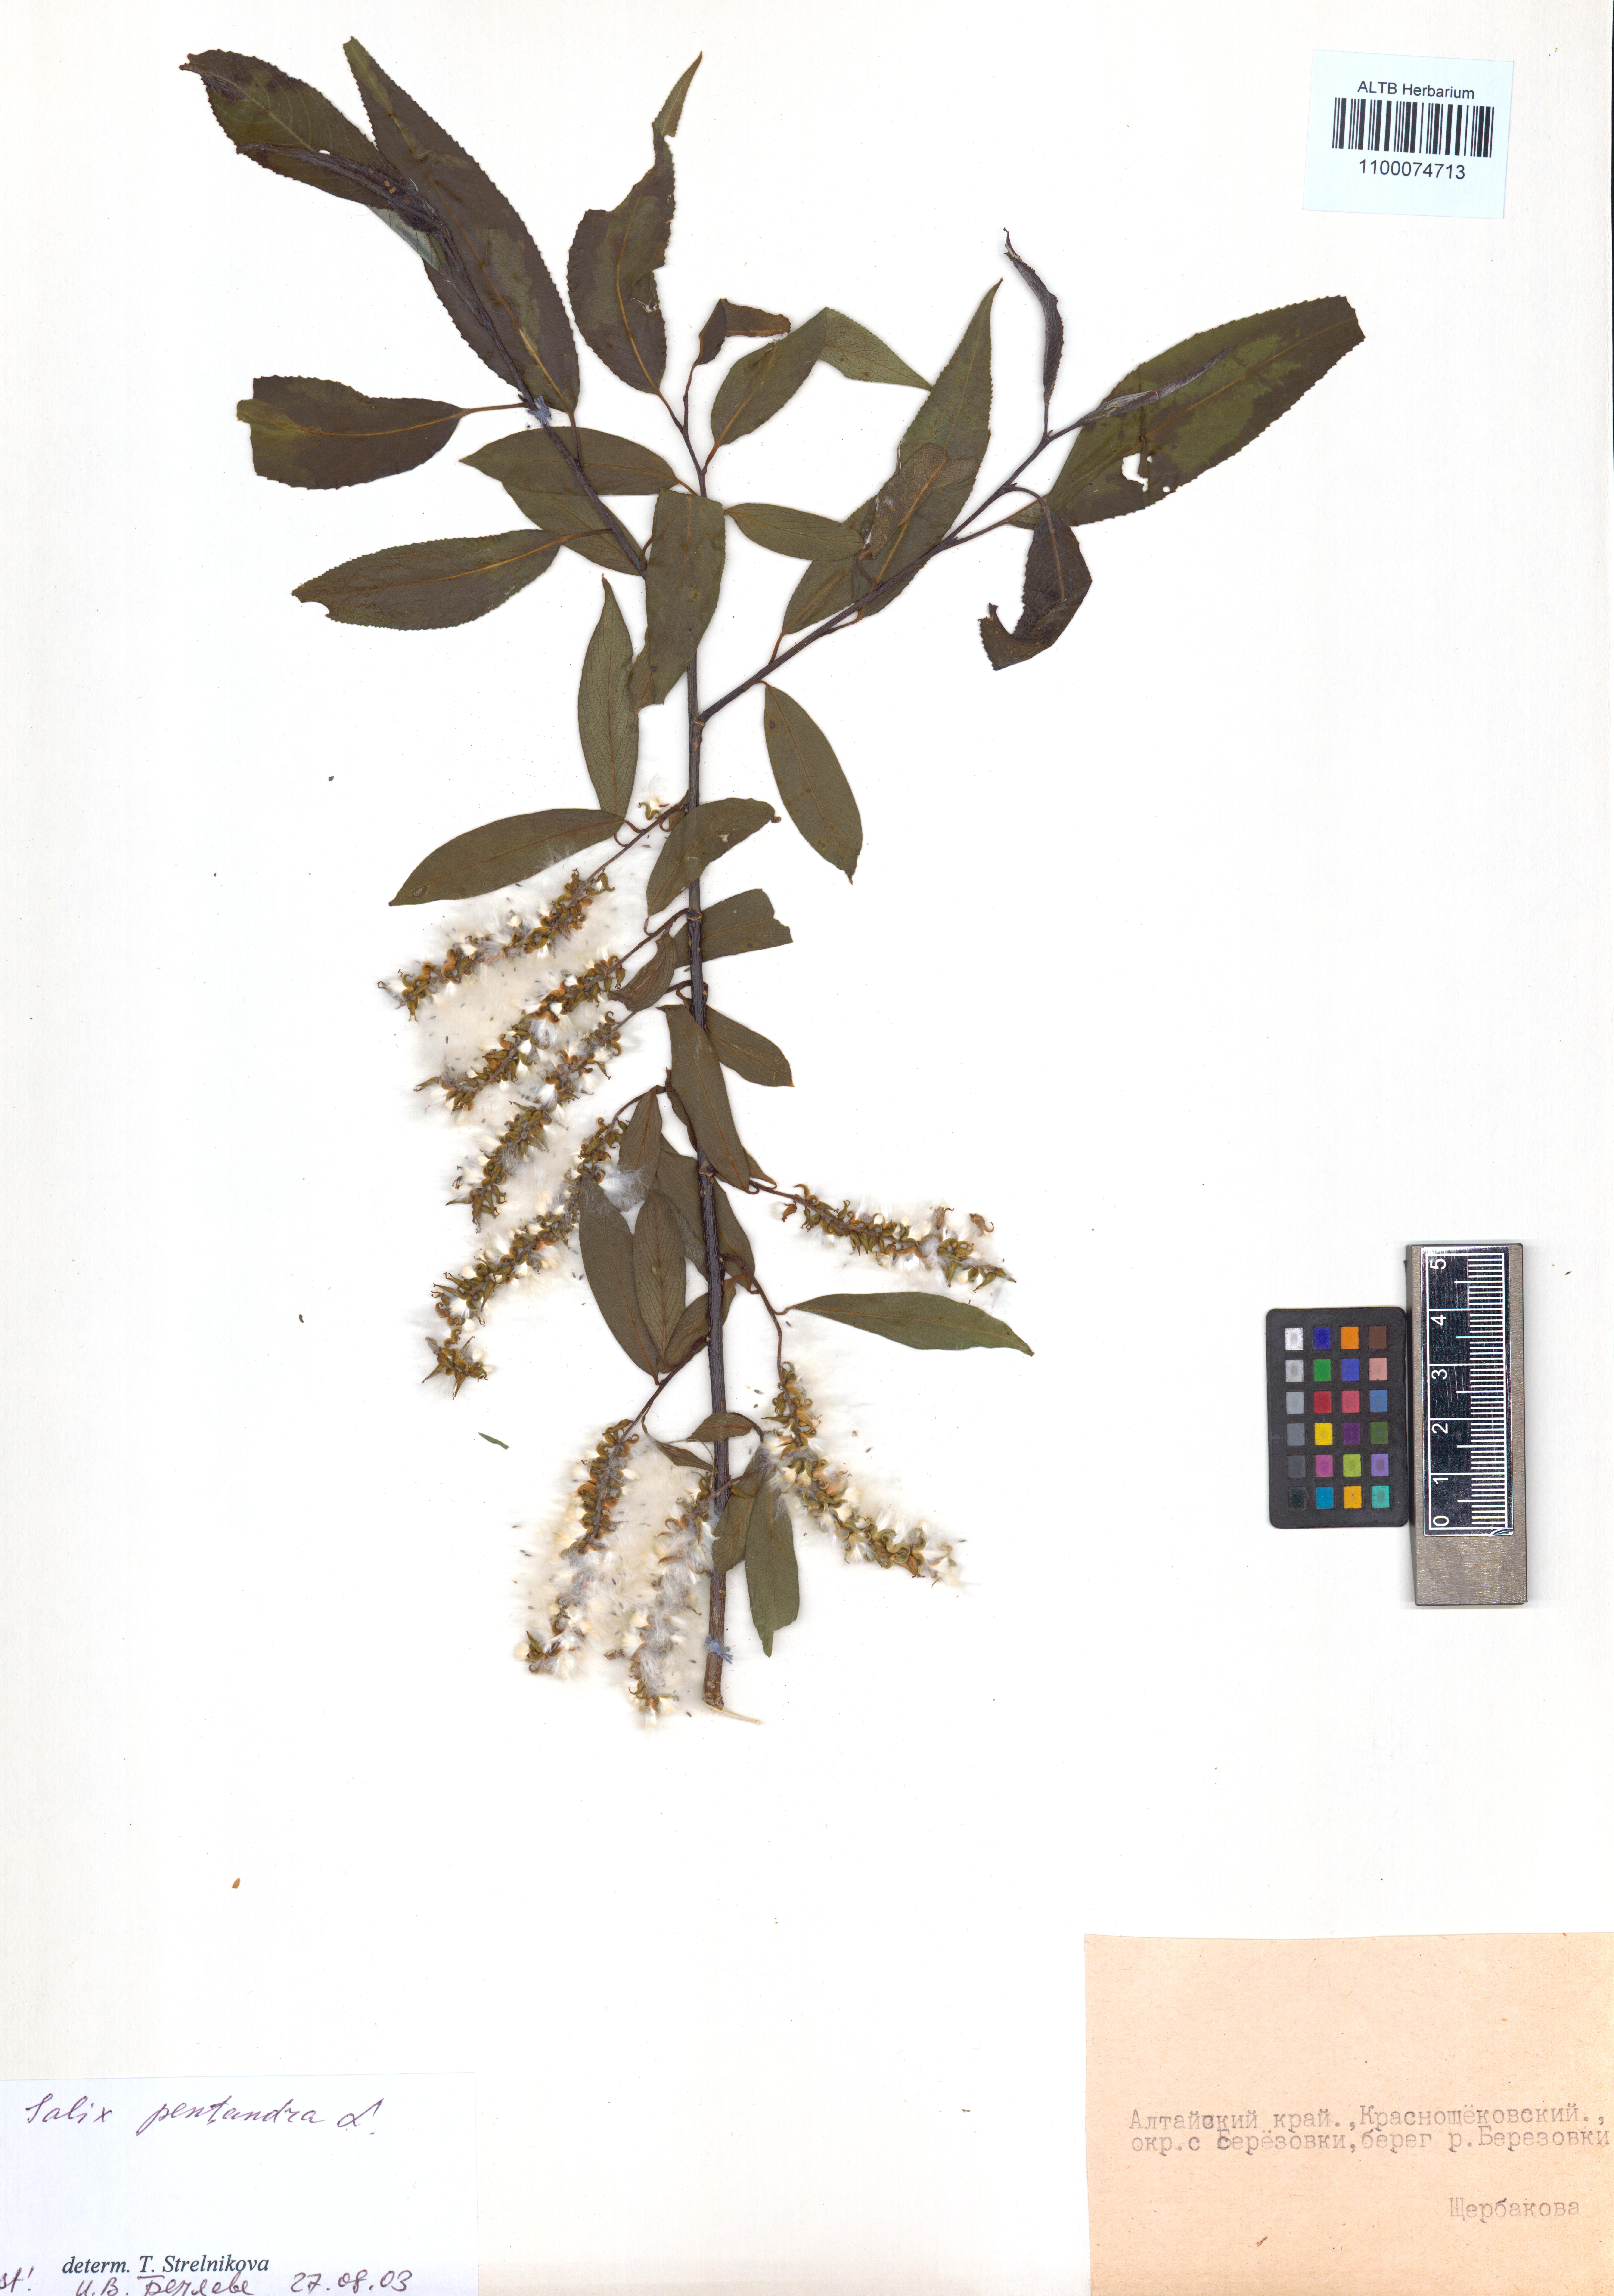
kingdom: Plantae
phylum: Tracheophyta
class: Magnoliopsida
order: Malpighiales
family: Salicaceae
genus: Salix
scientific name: Salix pentandra
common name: Bay willow
